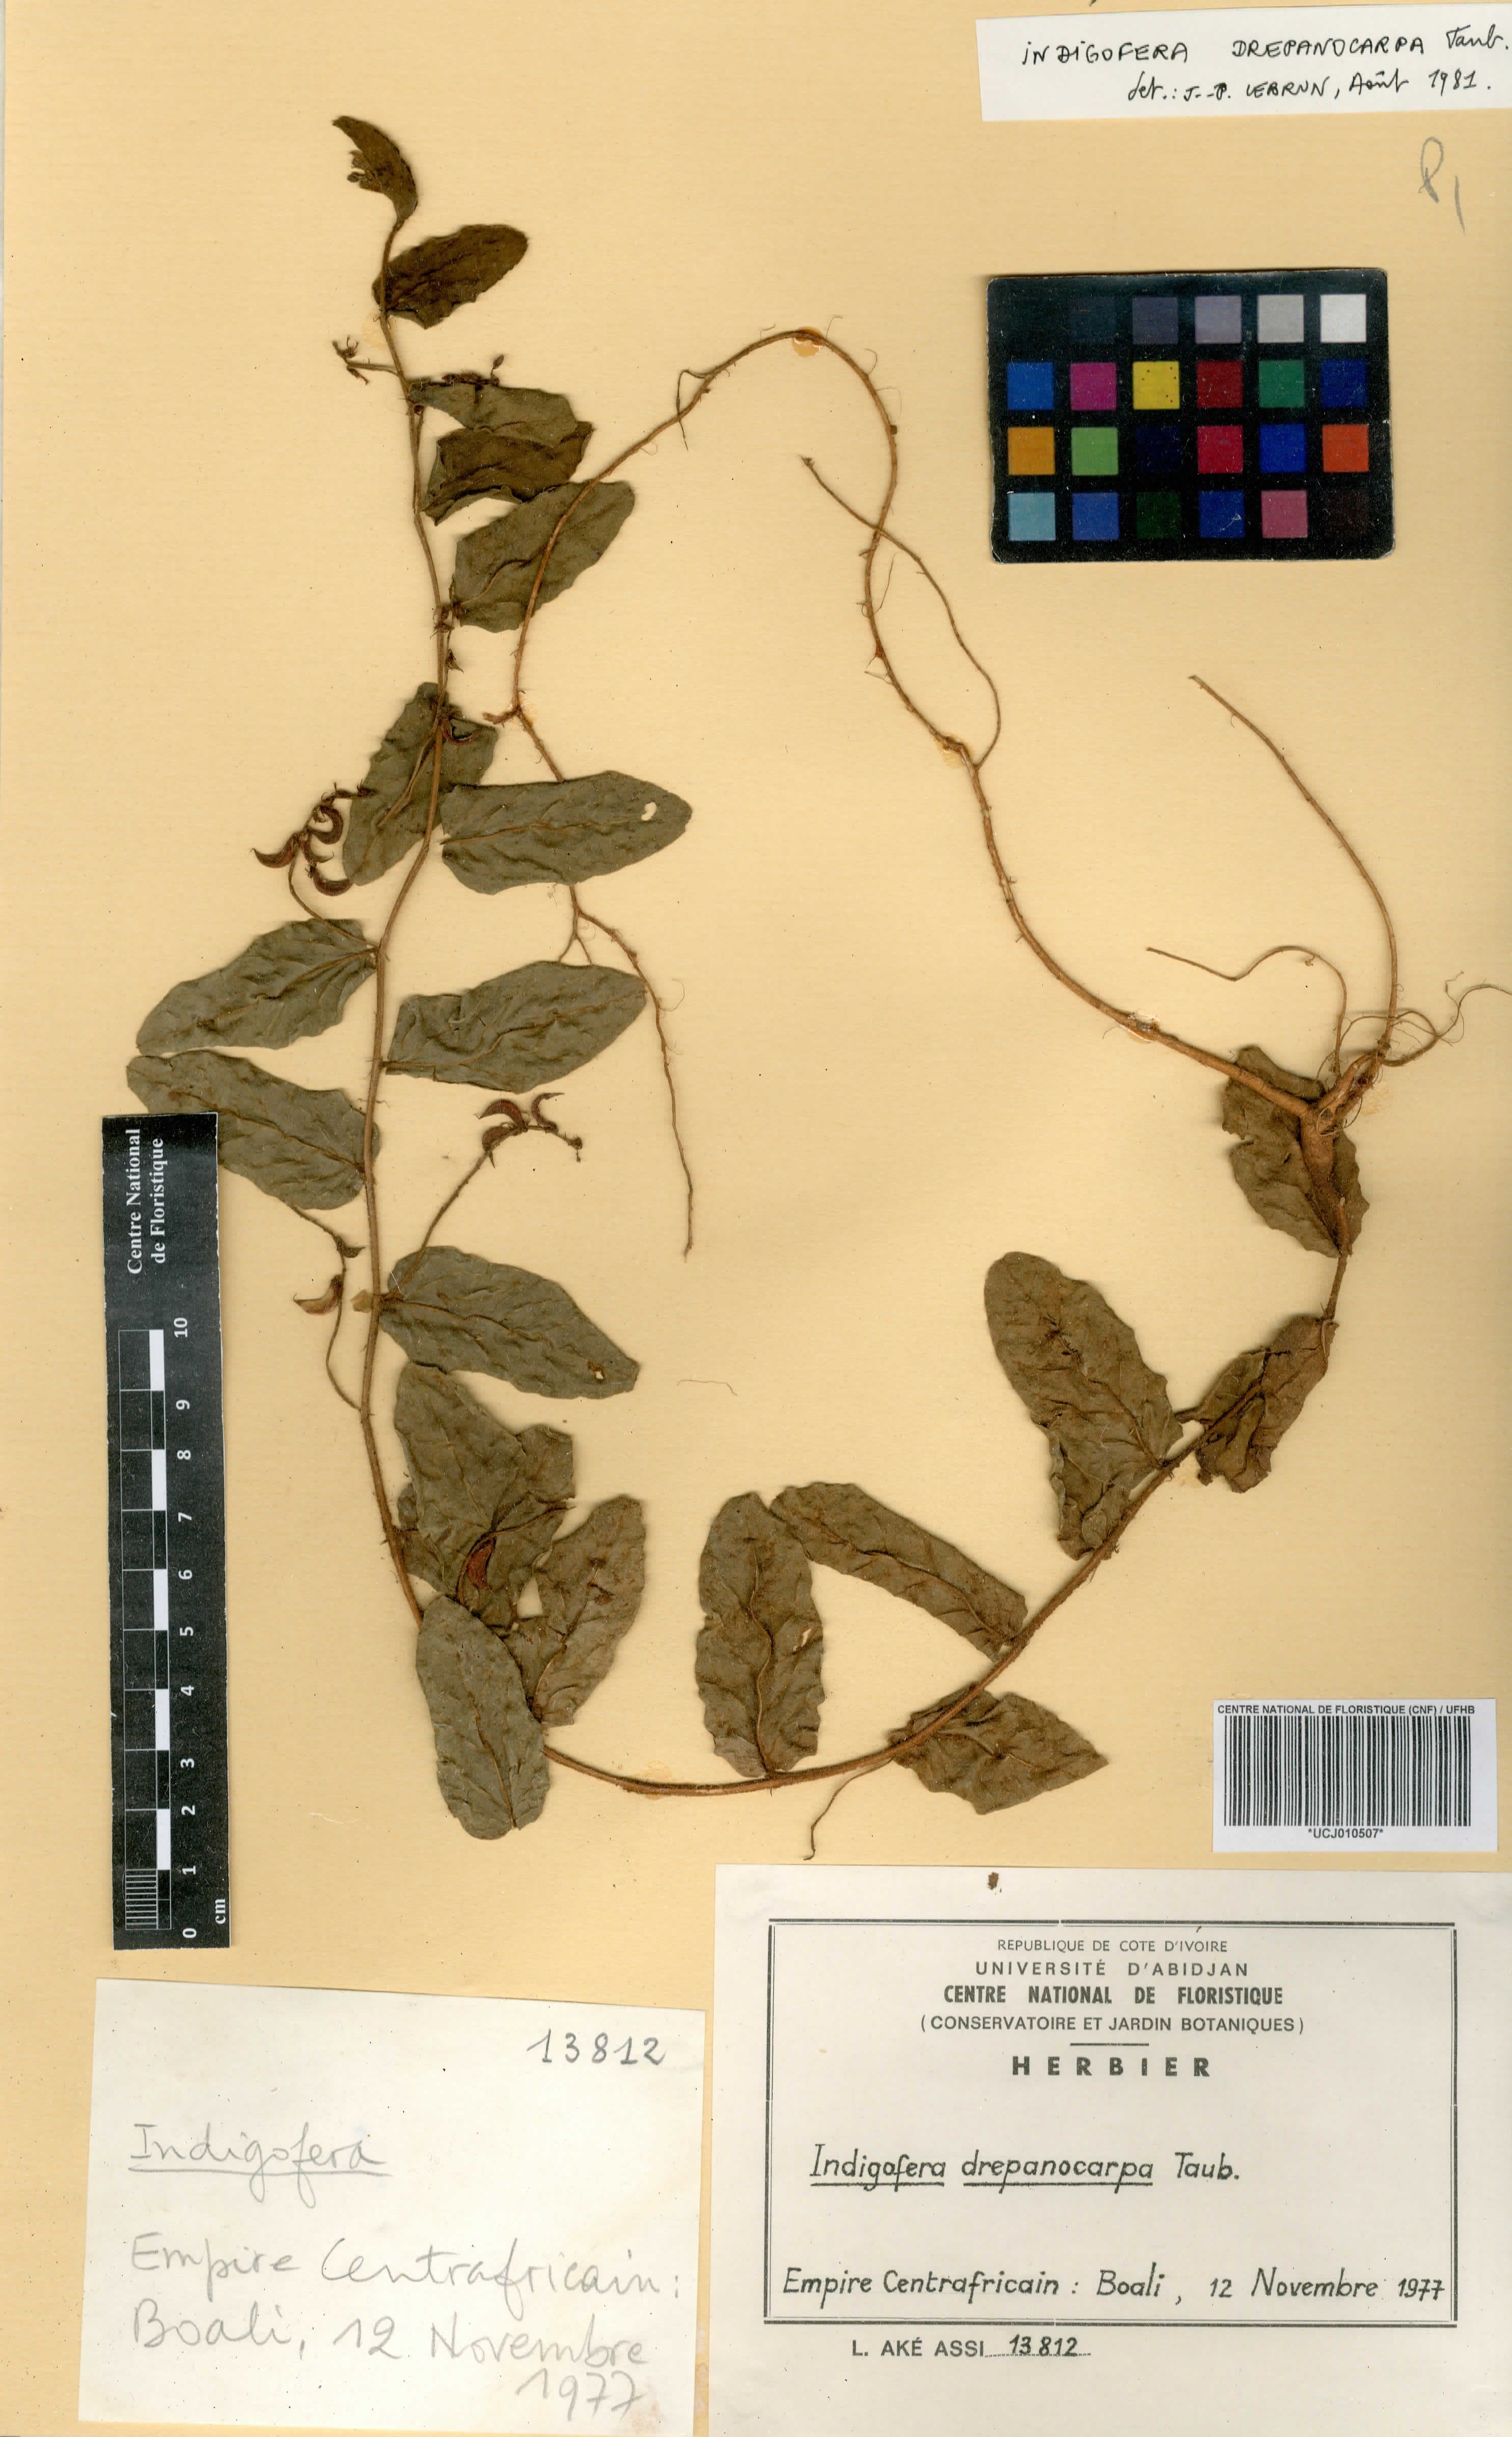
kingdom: Plantae
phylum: Tracheophyta
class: Magnoliopsida
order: Fabales
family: Fabaceae
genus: Indigofera
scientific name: Indigofera drepanocarpa
